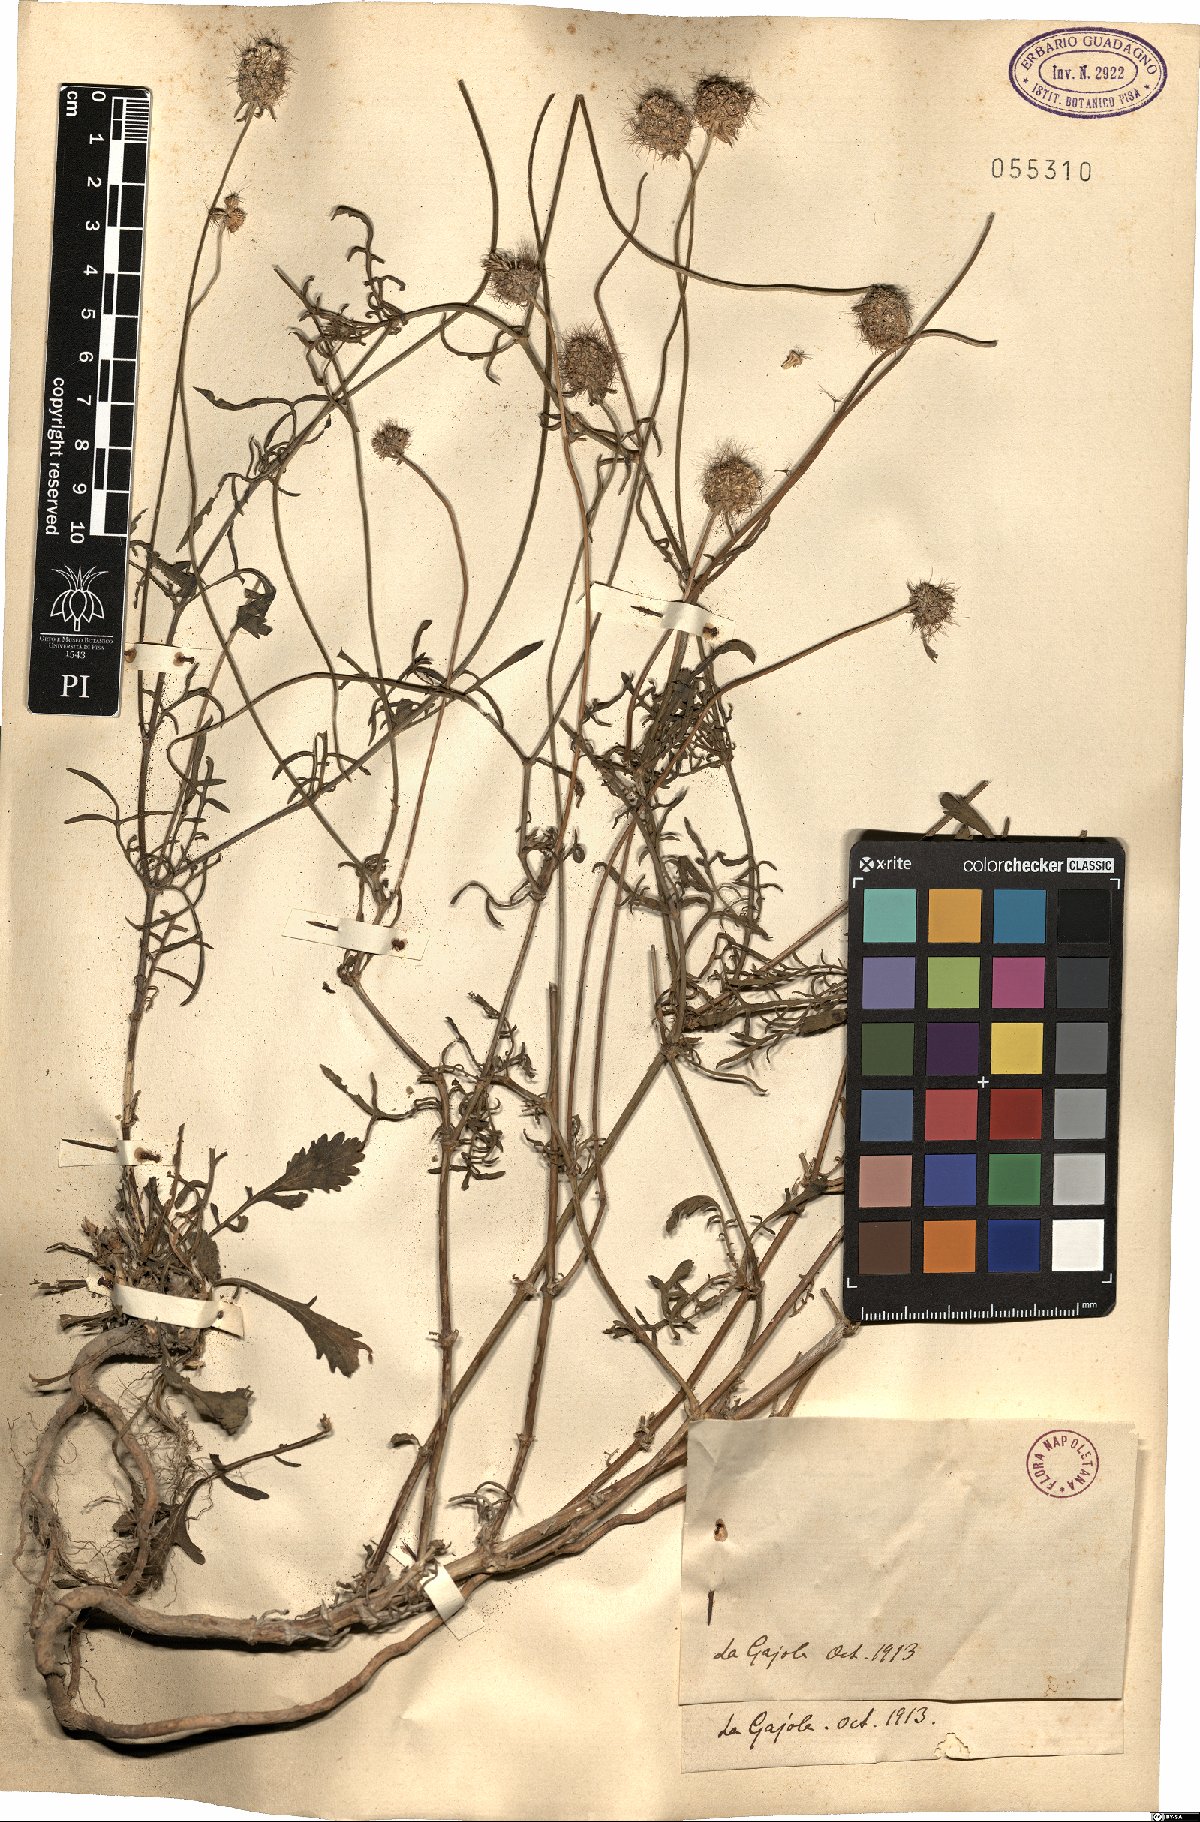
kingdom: Plantae
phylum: Tracheophyta
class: Magnoliopsida
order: Dipsacales
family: Caprifoliaceae
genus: Scabiosa
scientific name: Scabiosa
